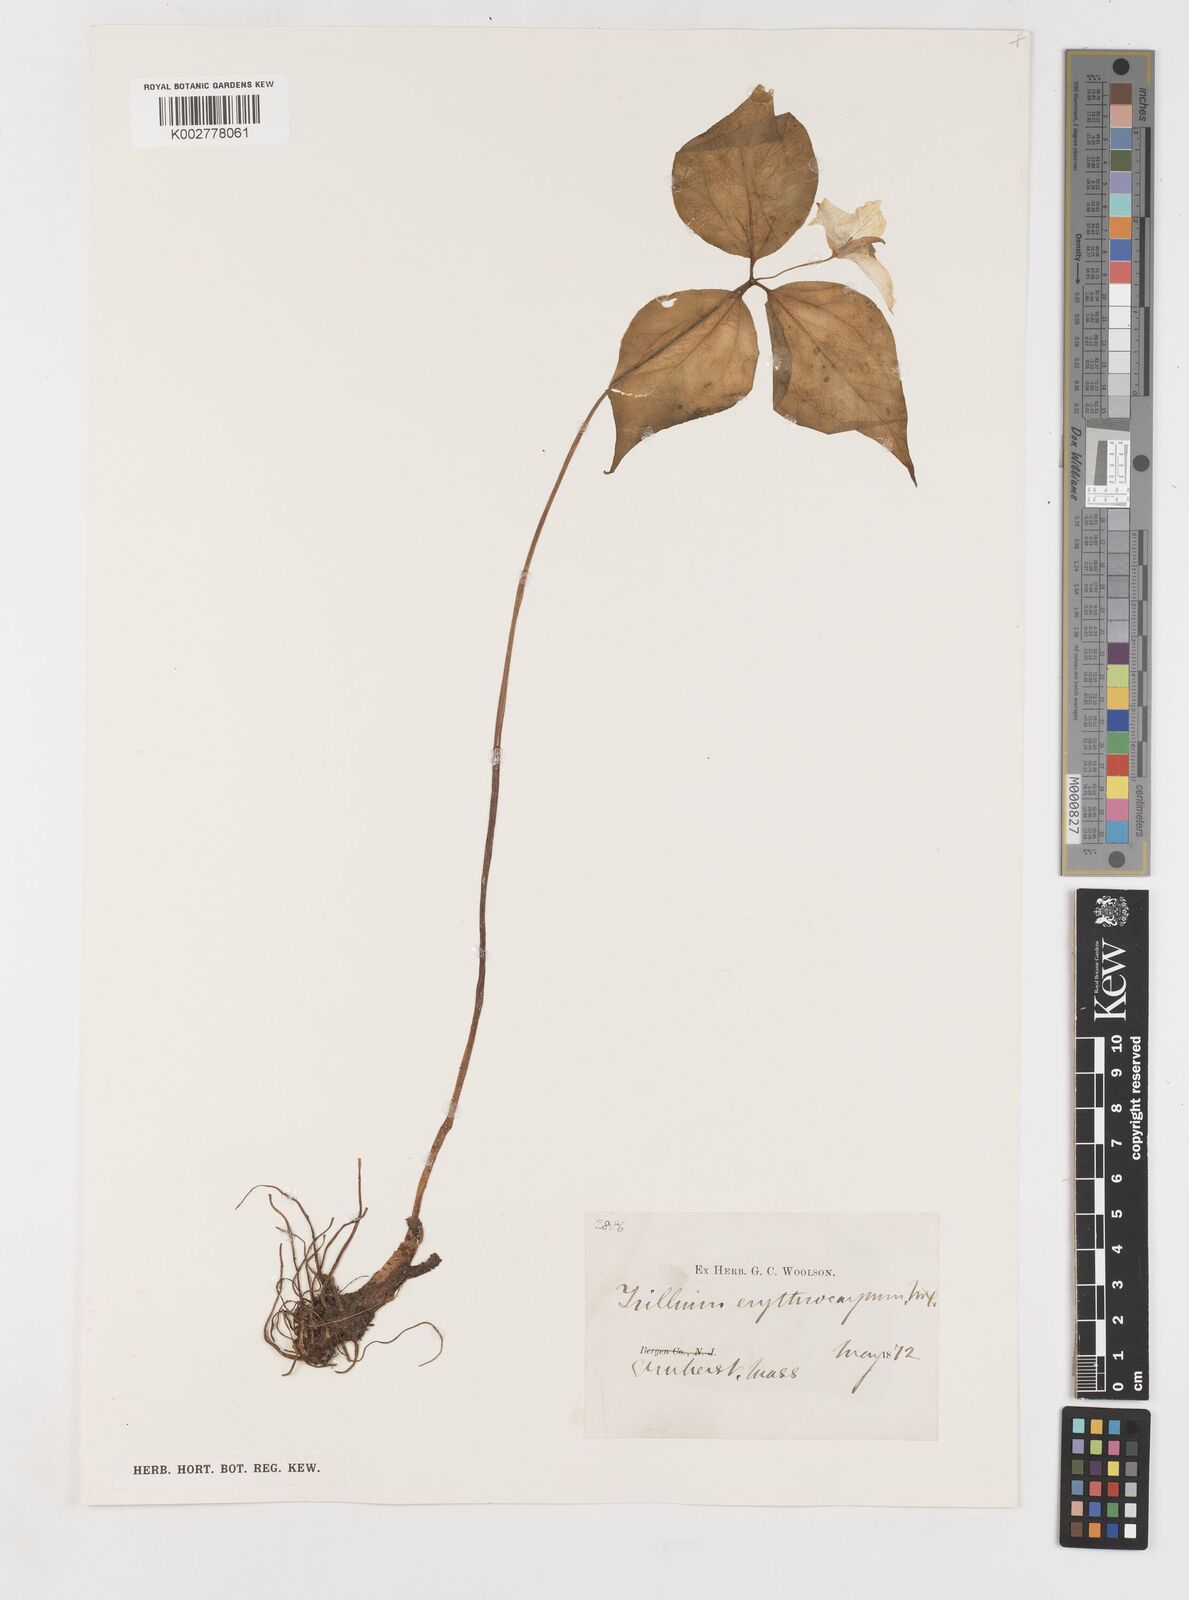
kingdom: Plantae
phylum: Tracheophyta
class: Liliopsida
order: Liliales
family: Melanthiaceae
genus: Trillium
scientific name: Trillium undulatum
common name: Paint trillium
